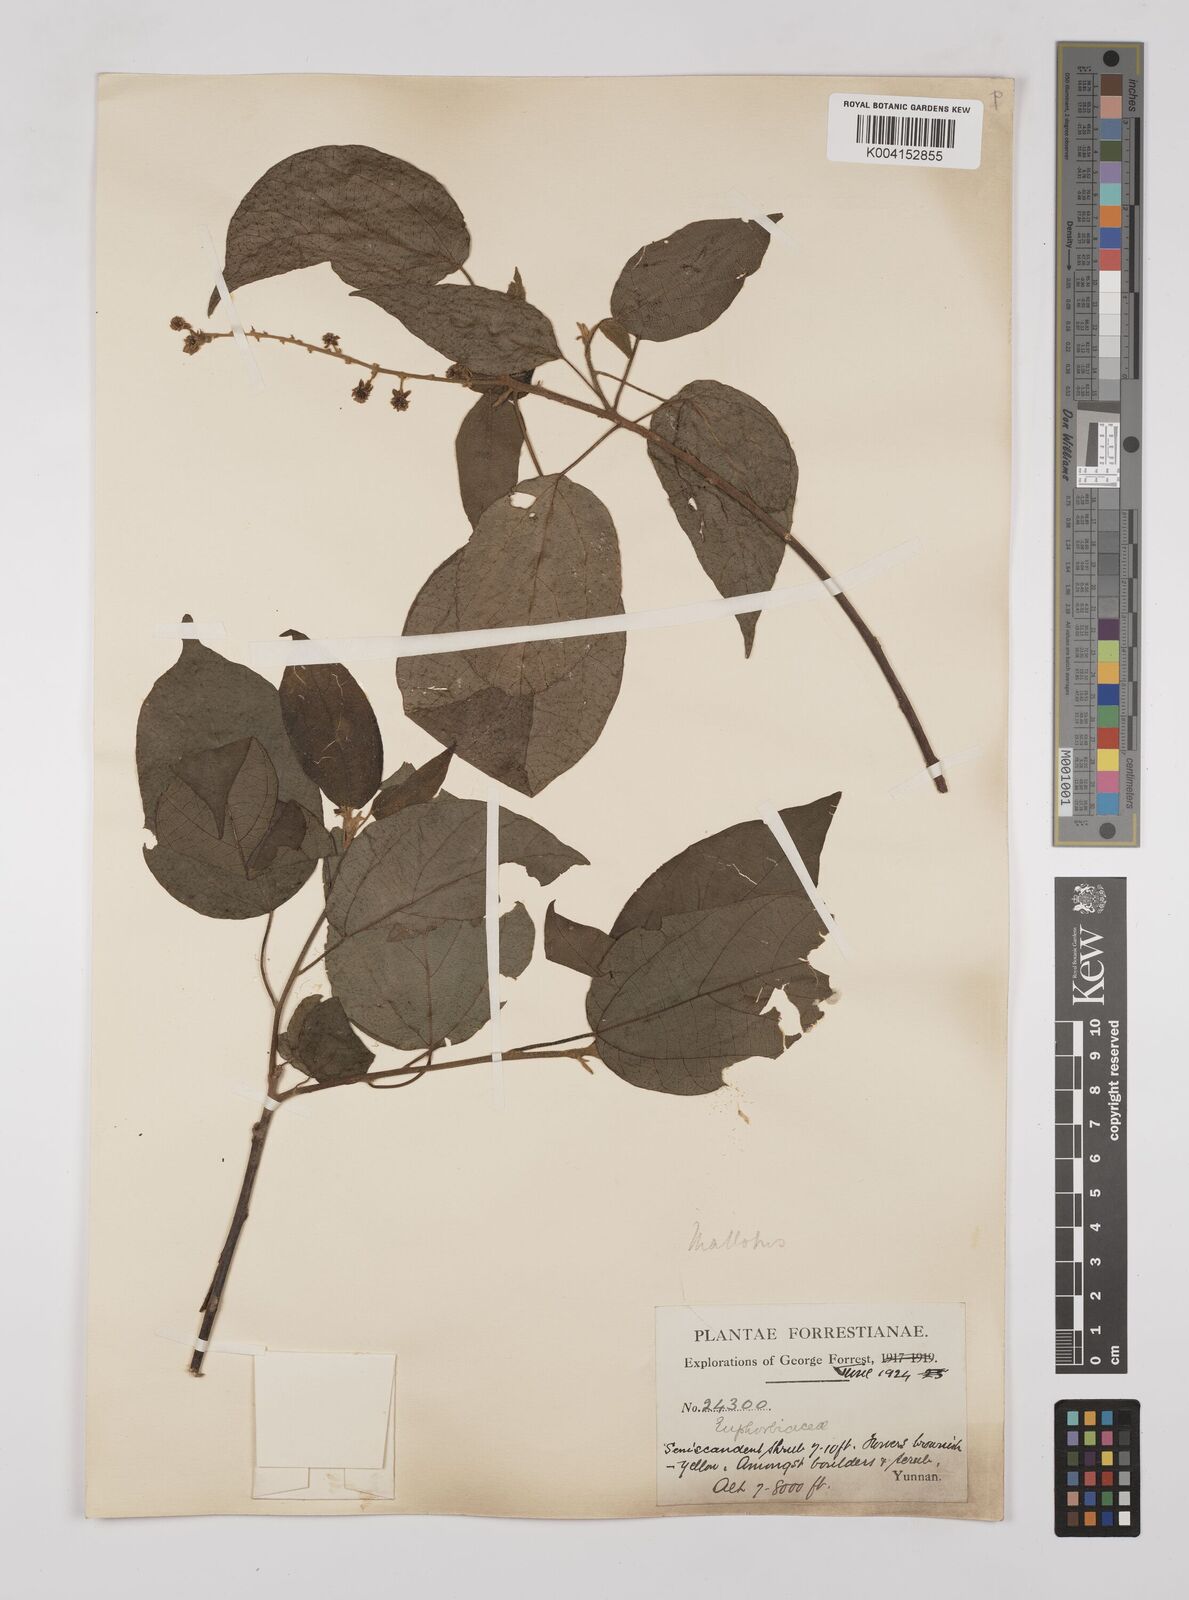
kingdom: Plantae
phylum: Tracheophyta
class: Magnoliopsida
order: Malpighiales
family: Euphorbiaceae
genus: Mallotus
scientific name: Mallotus illudens
